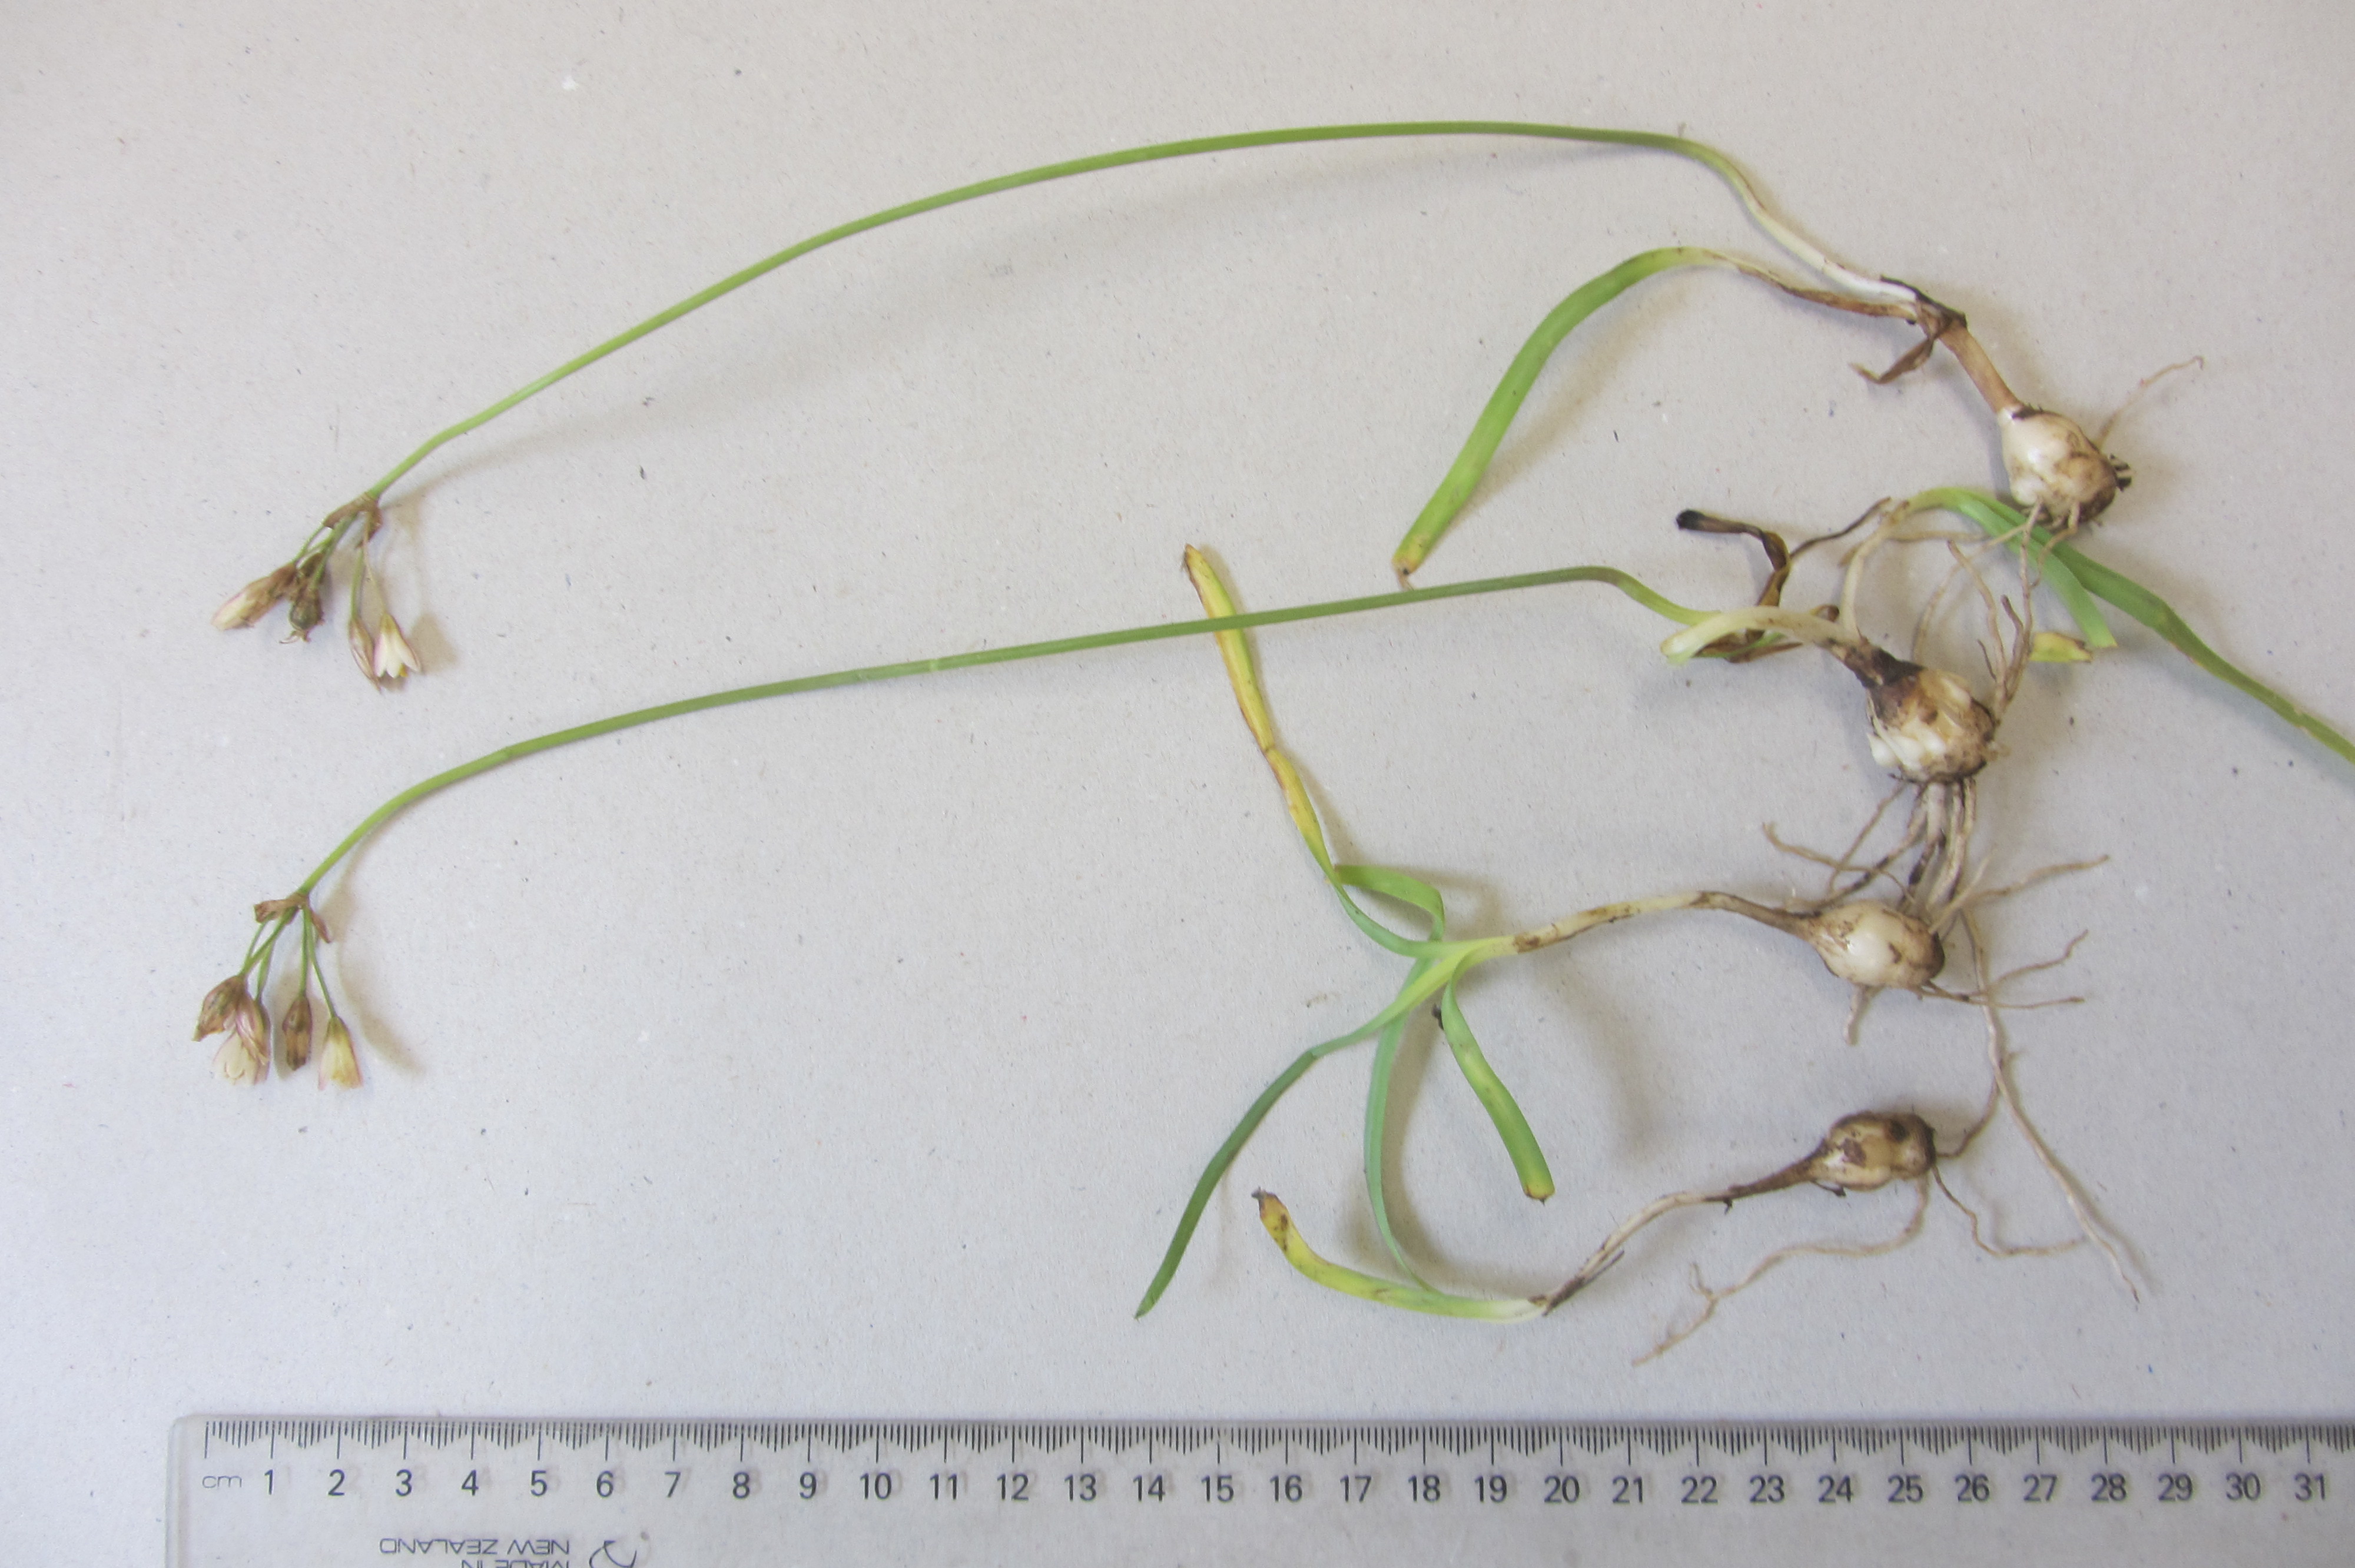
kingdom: Plantae
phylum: Tracheophyta
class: Liliopsida
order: Asparagales
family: Amaryllidaceae
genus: Allium
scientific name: Allium roseum
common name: Rosy garlic
